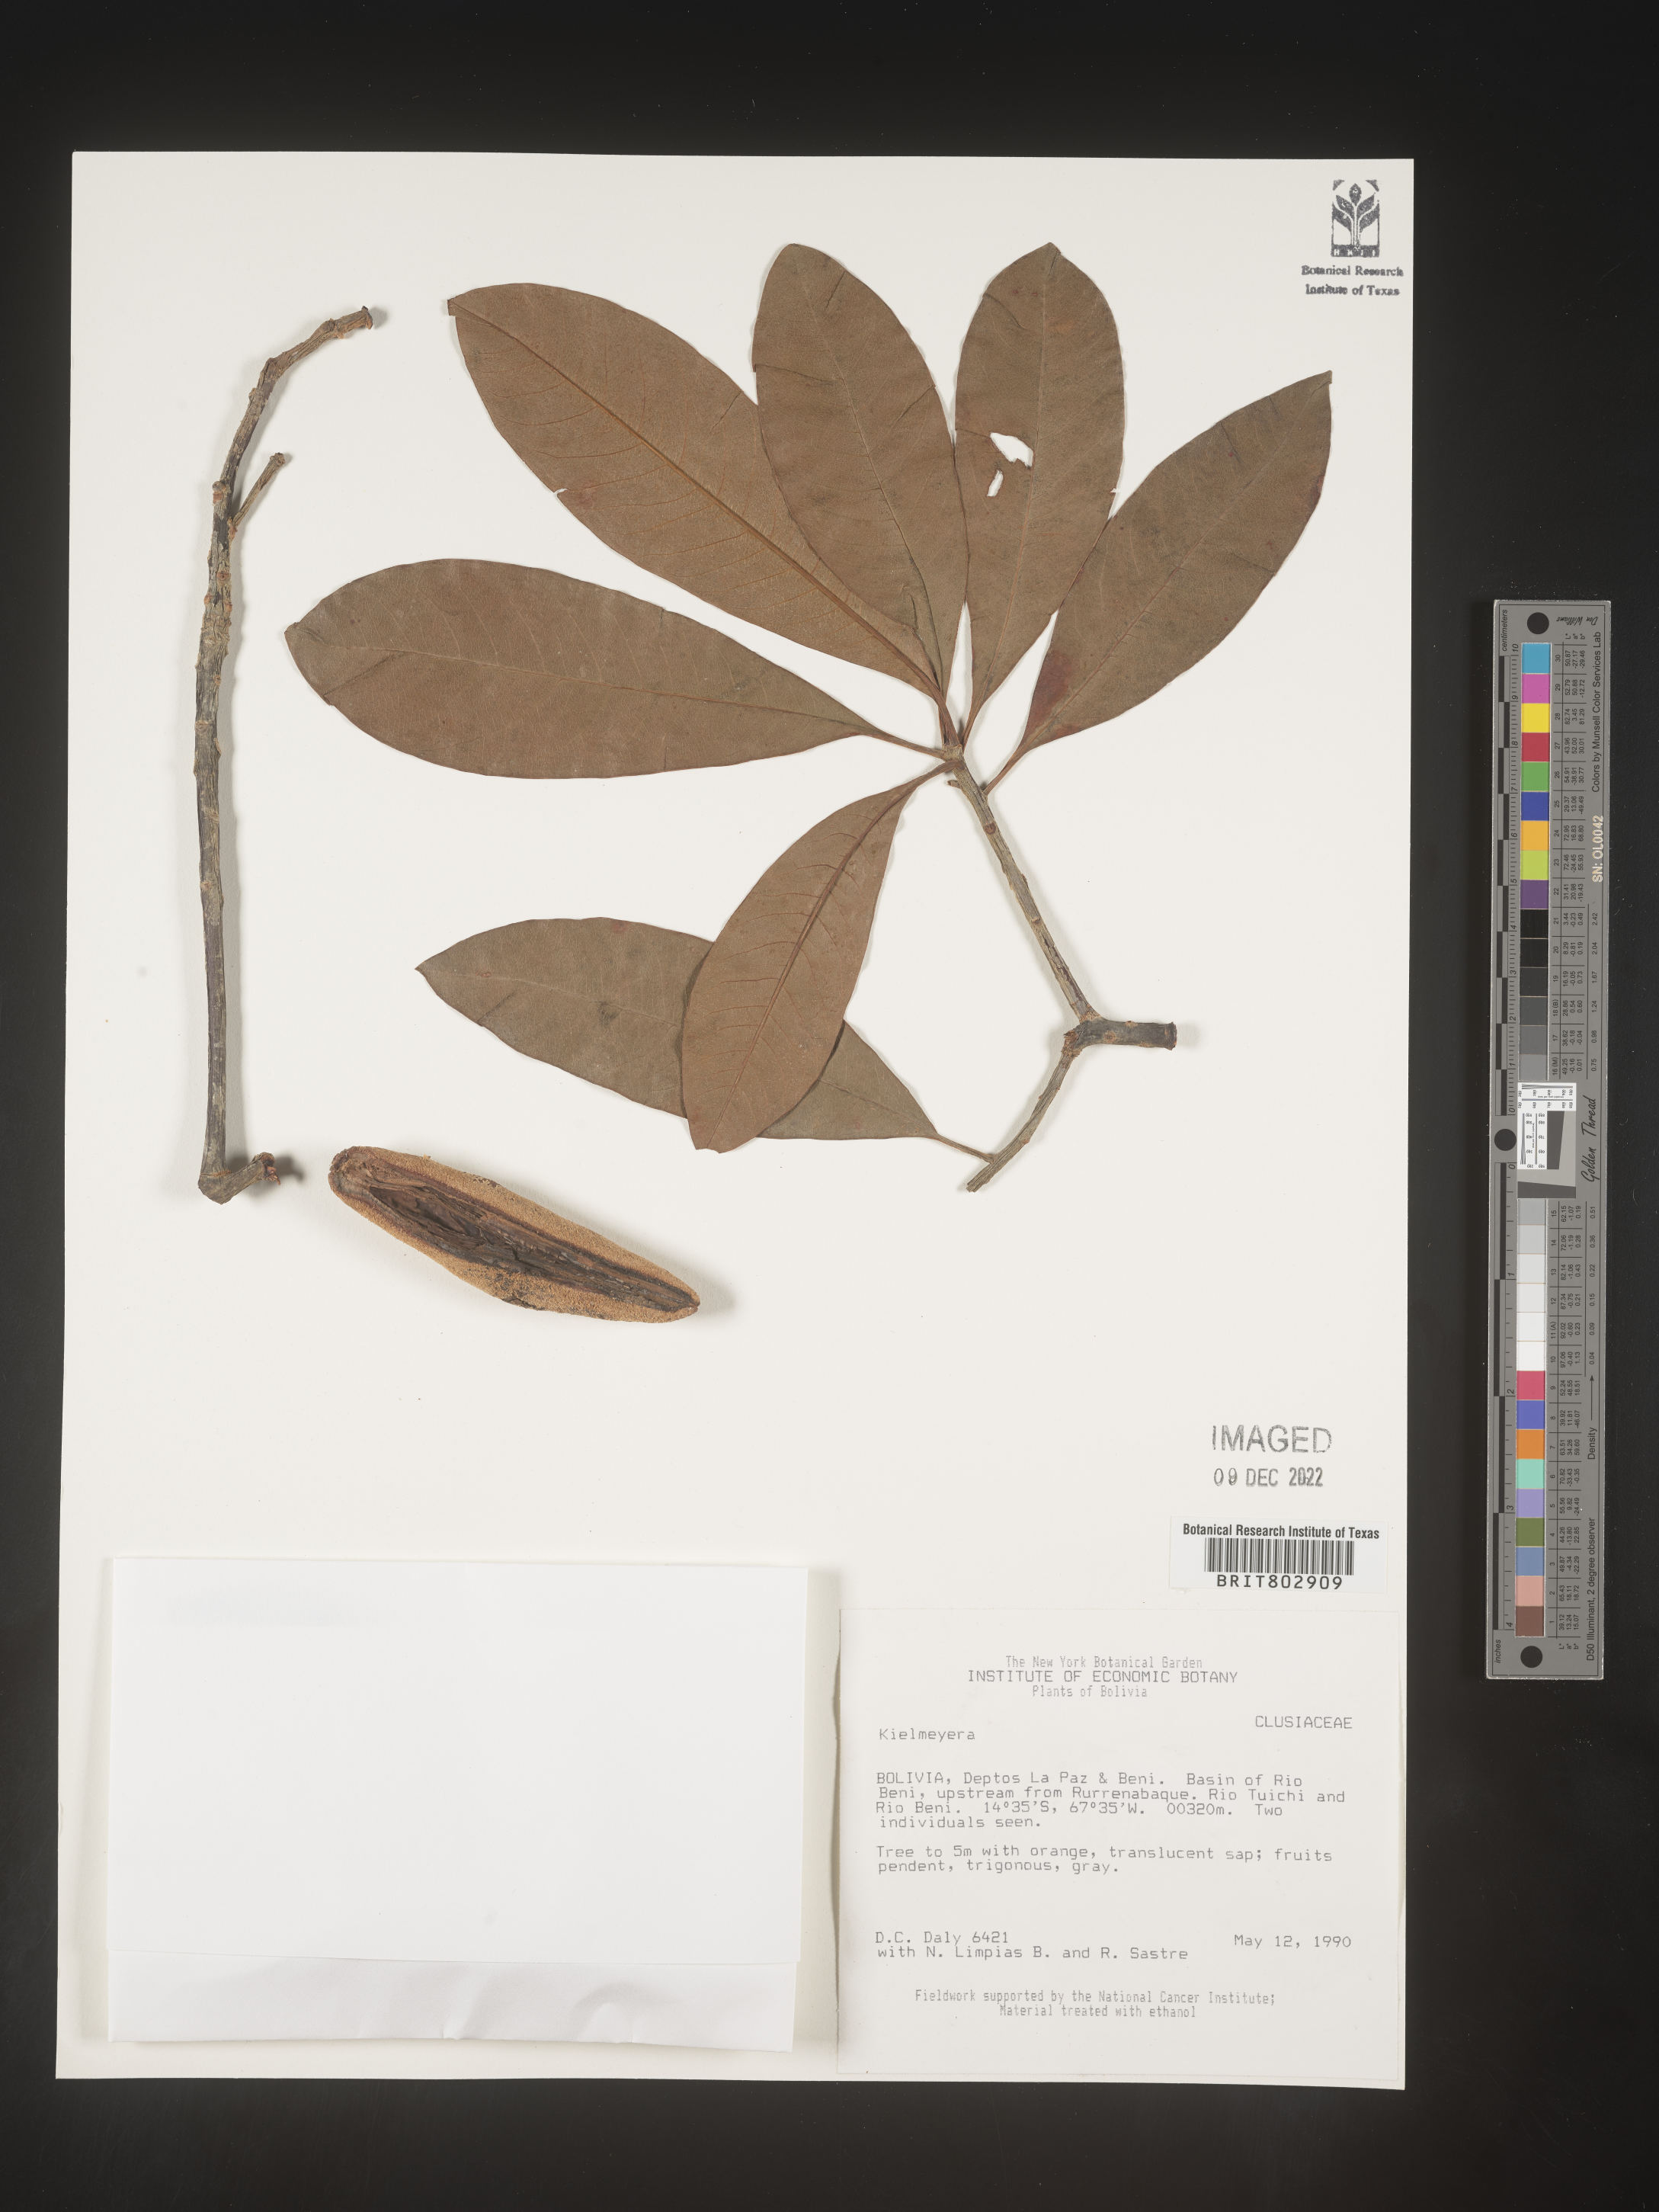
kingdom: Plantae
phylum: Tracheophyta
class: Magnoliopsida
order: Malpighiales
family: Calophyllaceae
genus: Kielmeyera
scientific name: Kielmeyera
